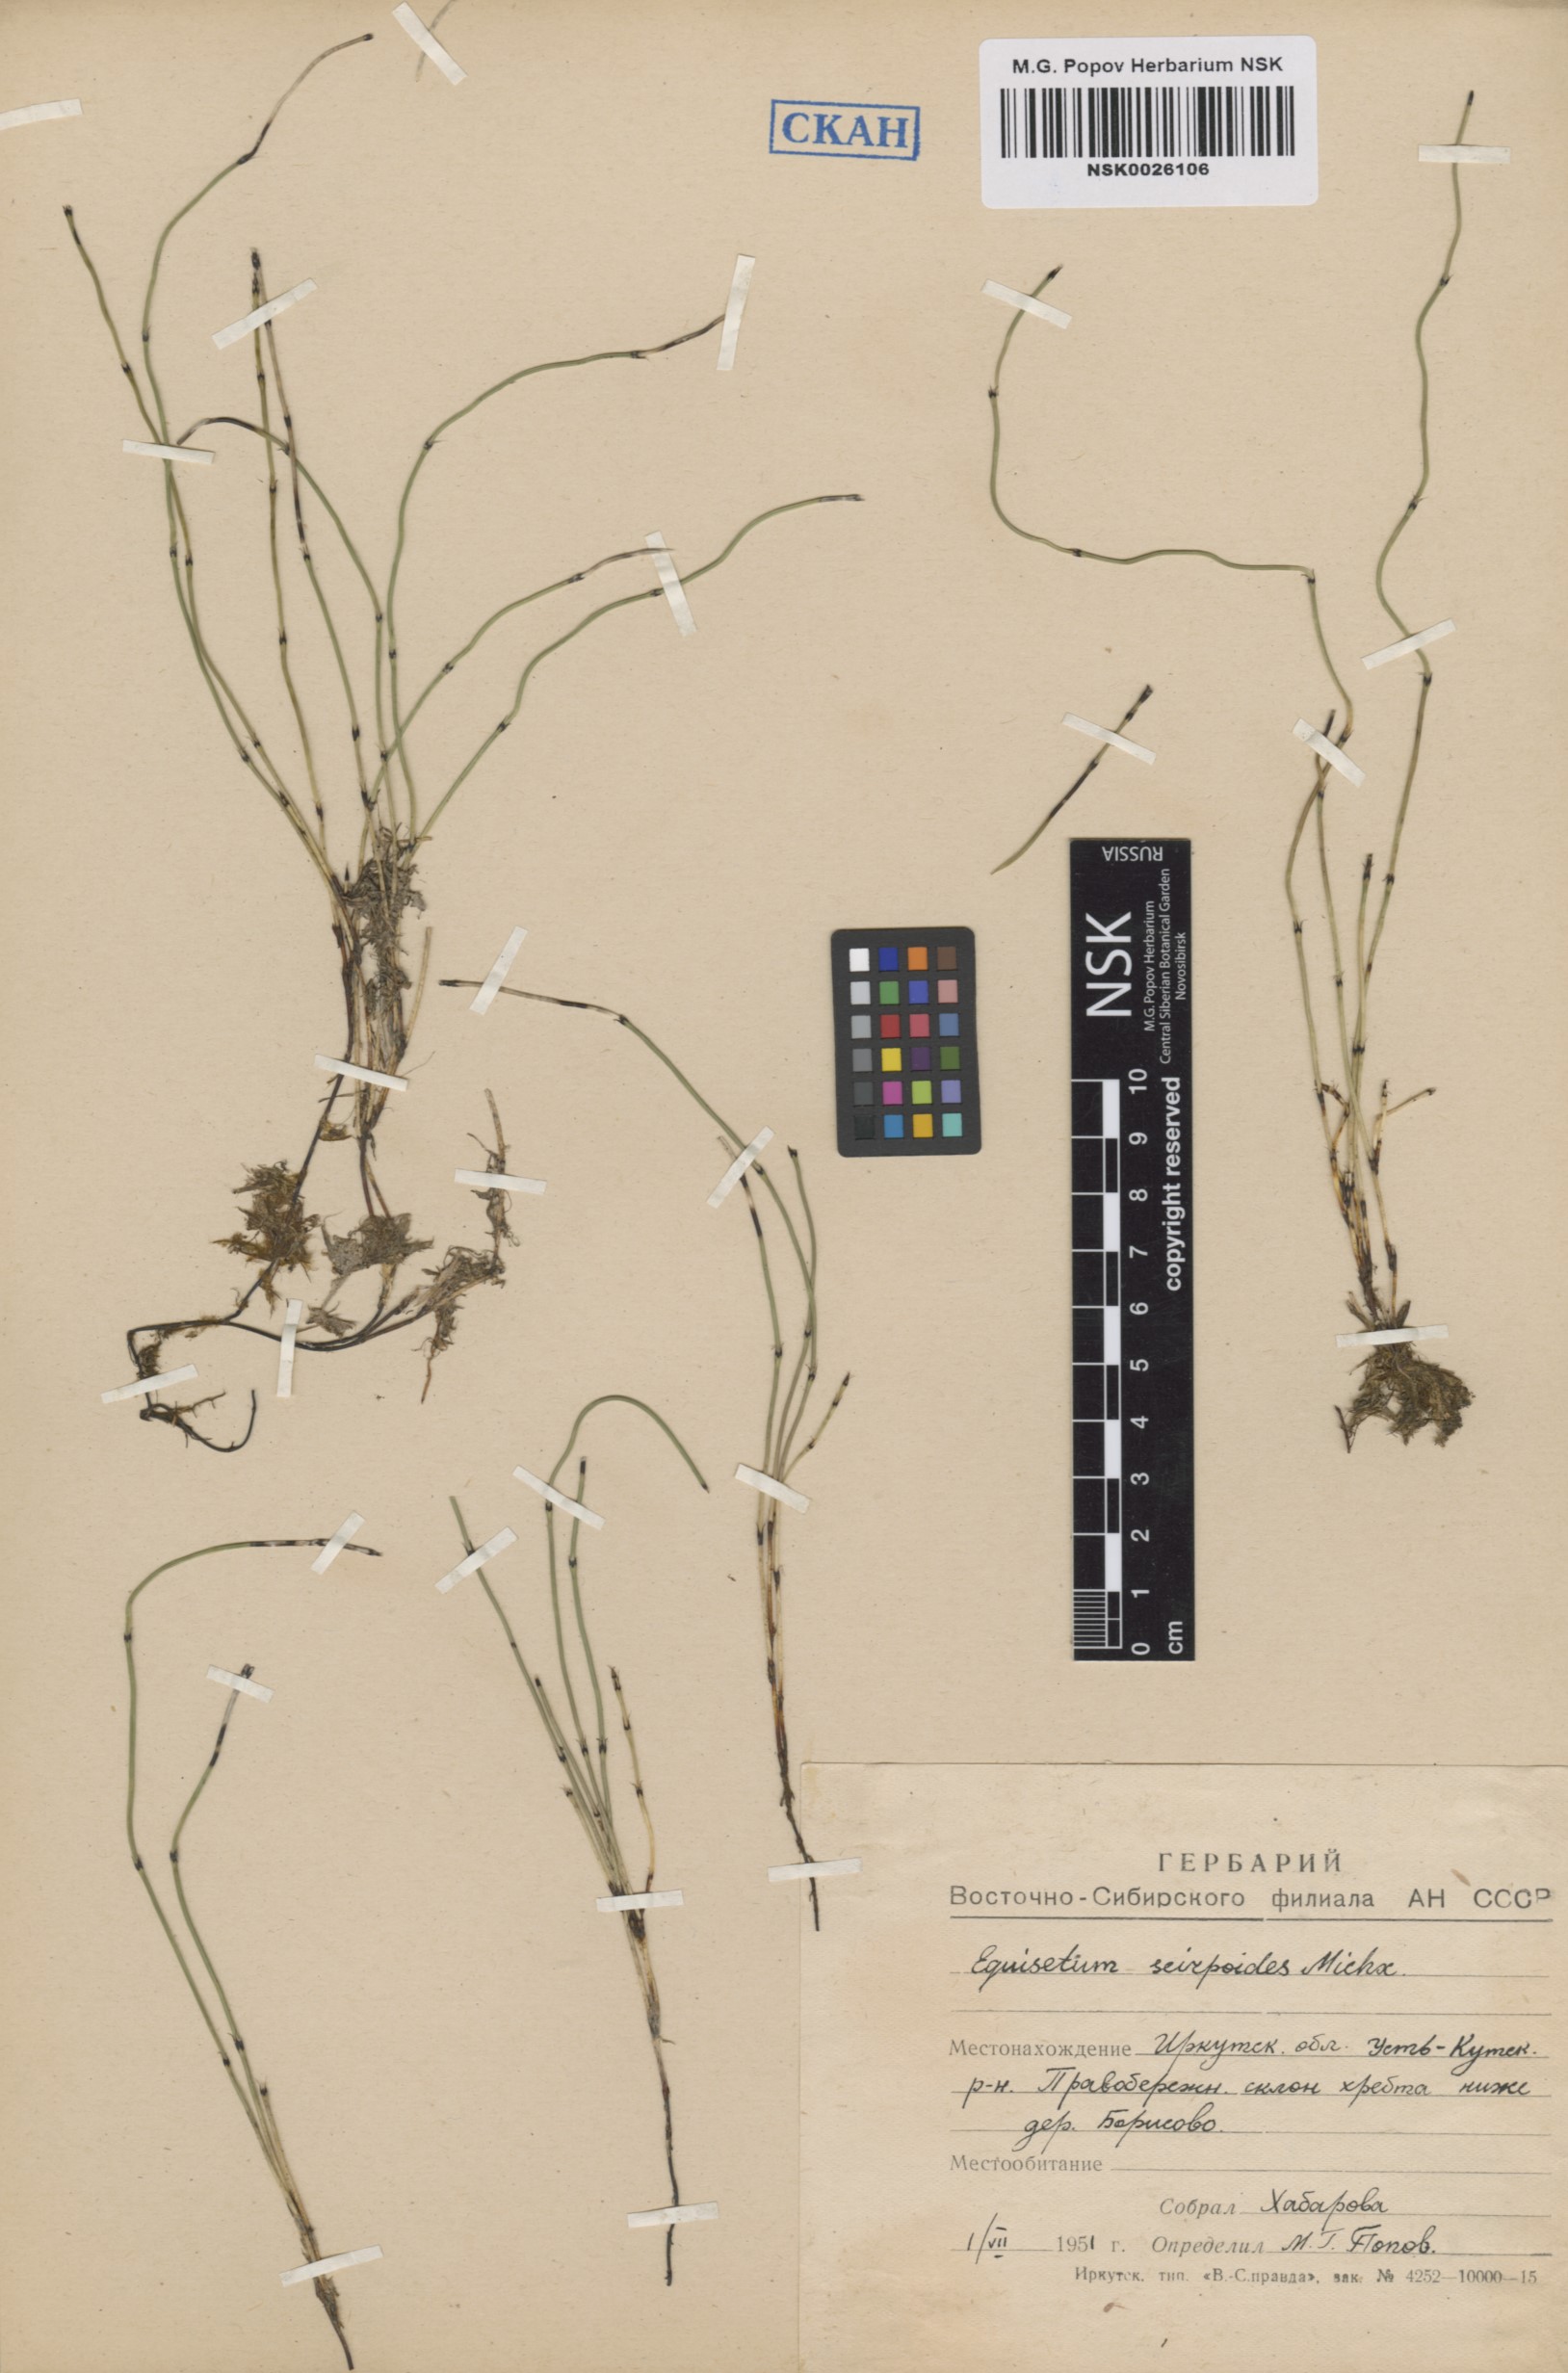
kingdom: Plantae
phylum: Tracheophyta
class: Polypodiopsida
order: Equisetales
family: Equisetaceae
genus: Equisetum
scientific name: Equisetum scirpoides
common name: Delicate horsetail
